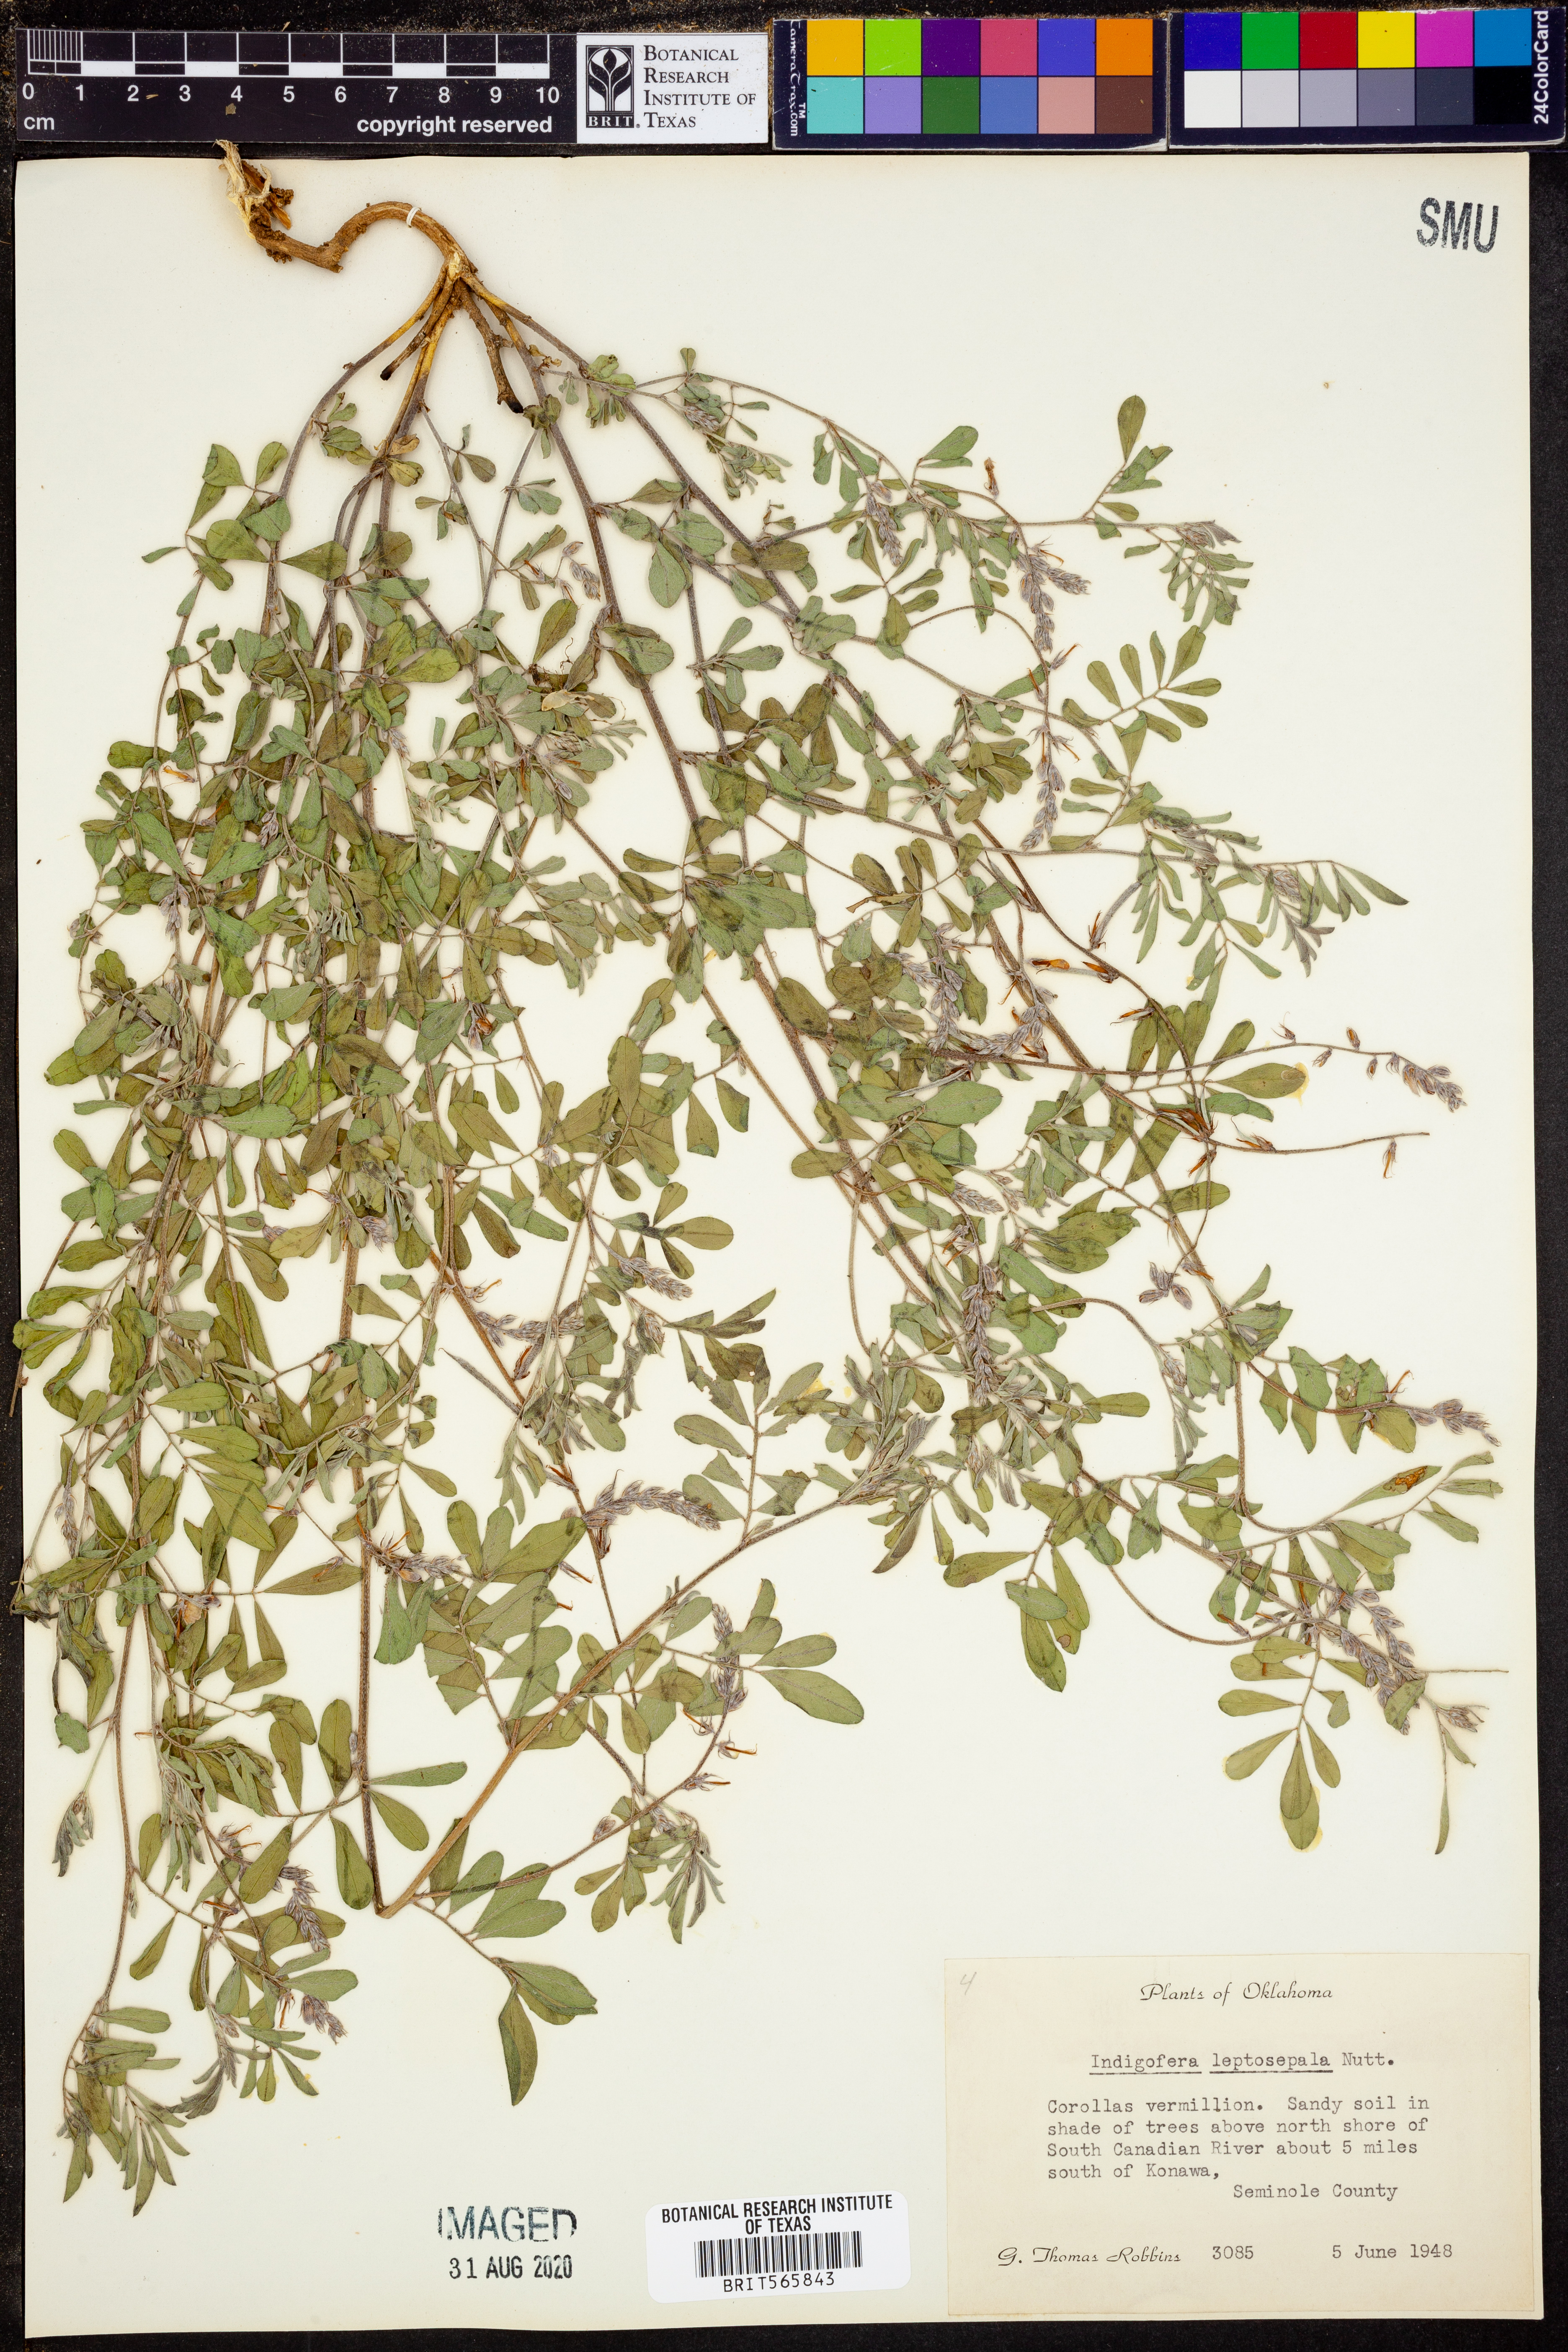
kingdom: Plantae
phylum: Tracheophyta
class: Magnoliopsida
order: Fabales
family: Fabaceae
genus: Indigofera
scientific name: Indigofera argutidens
